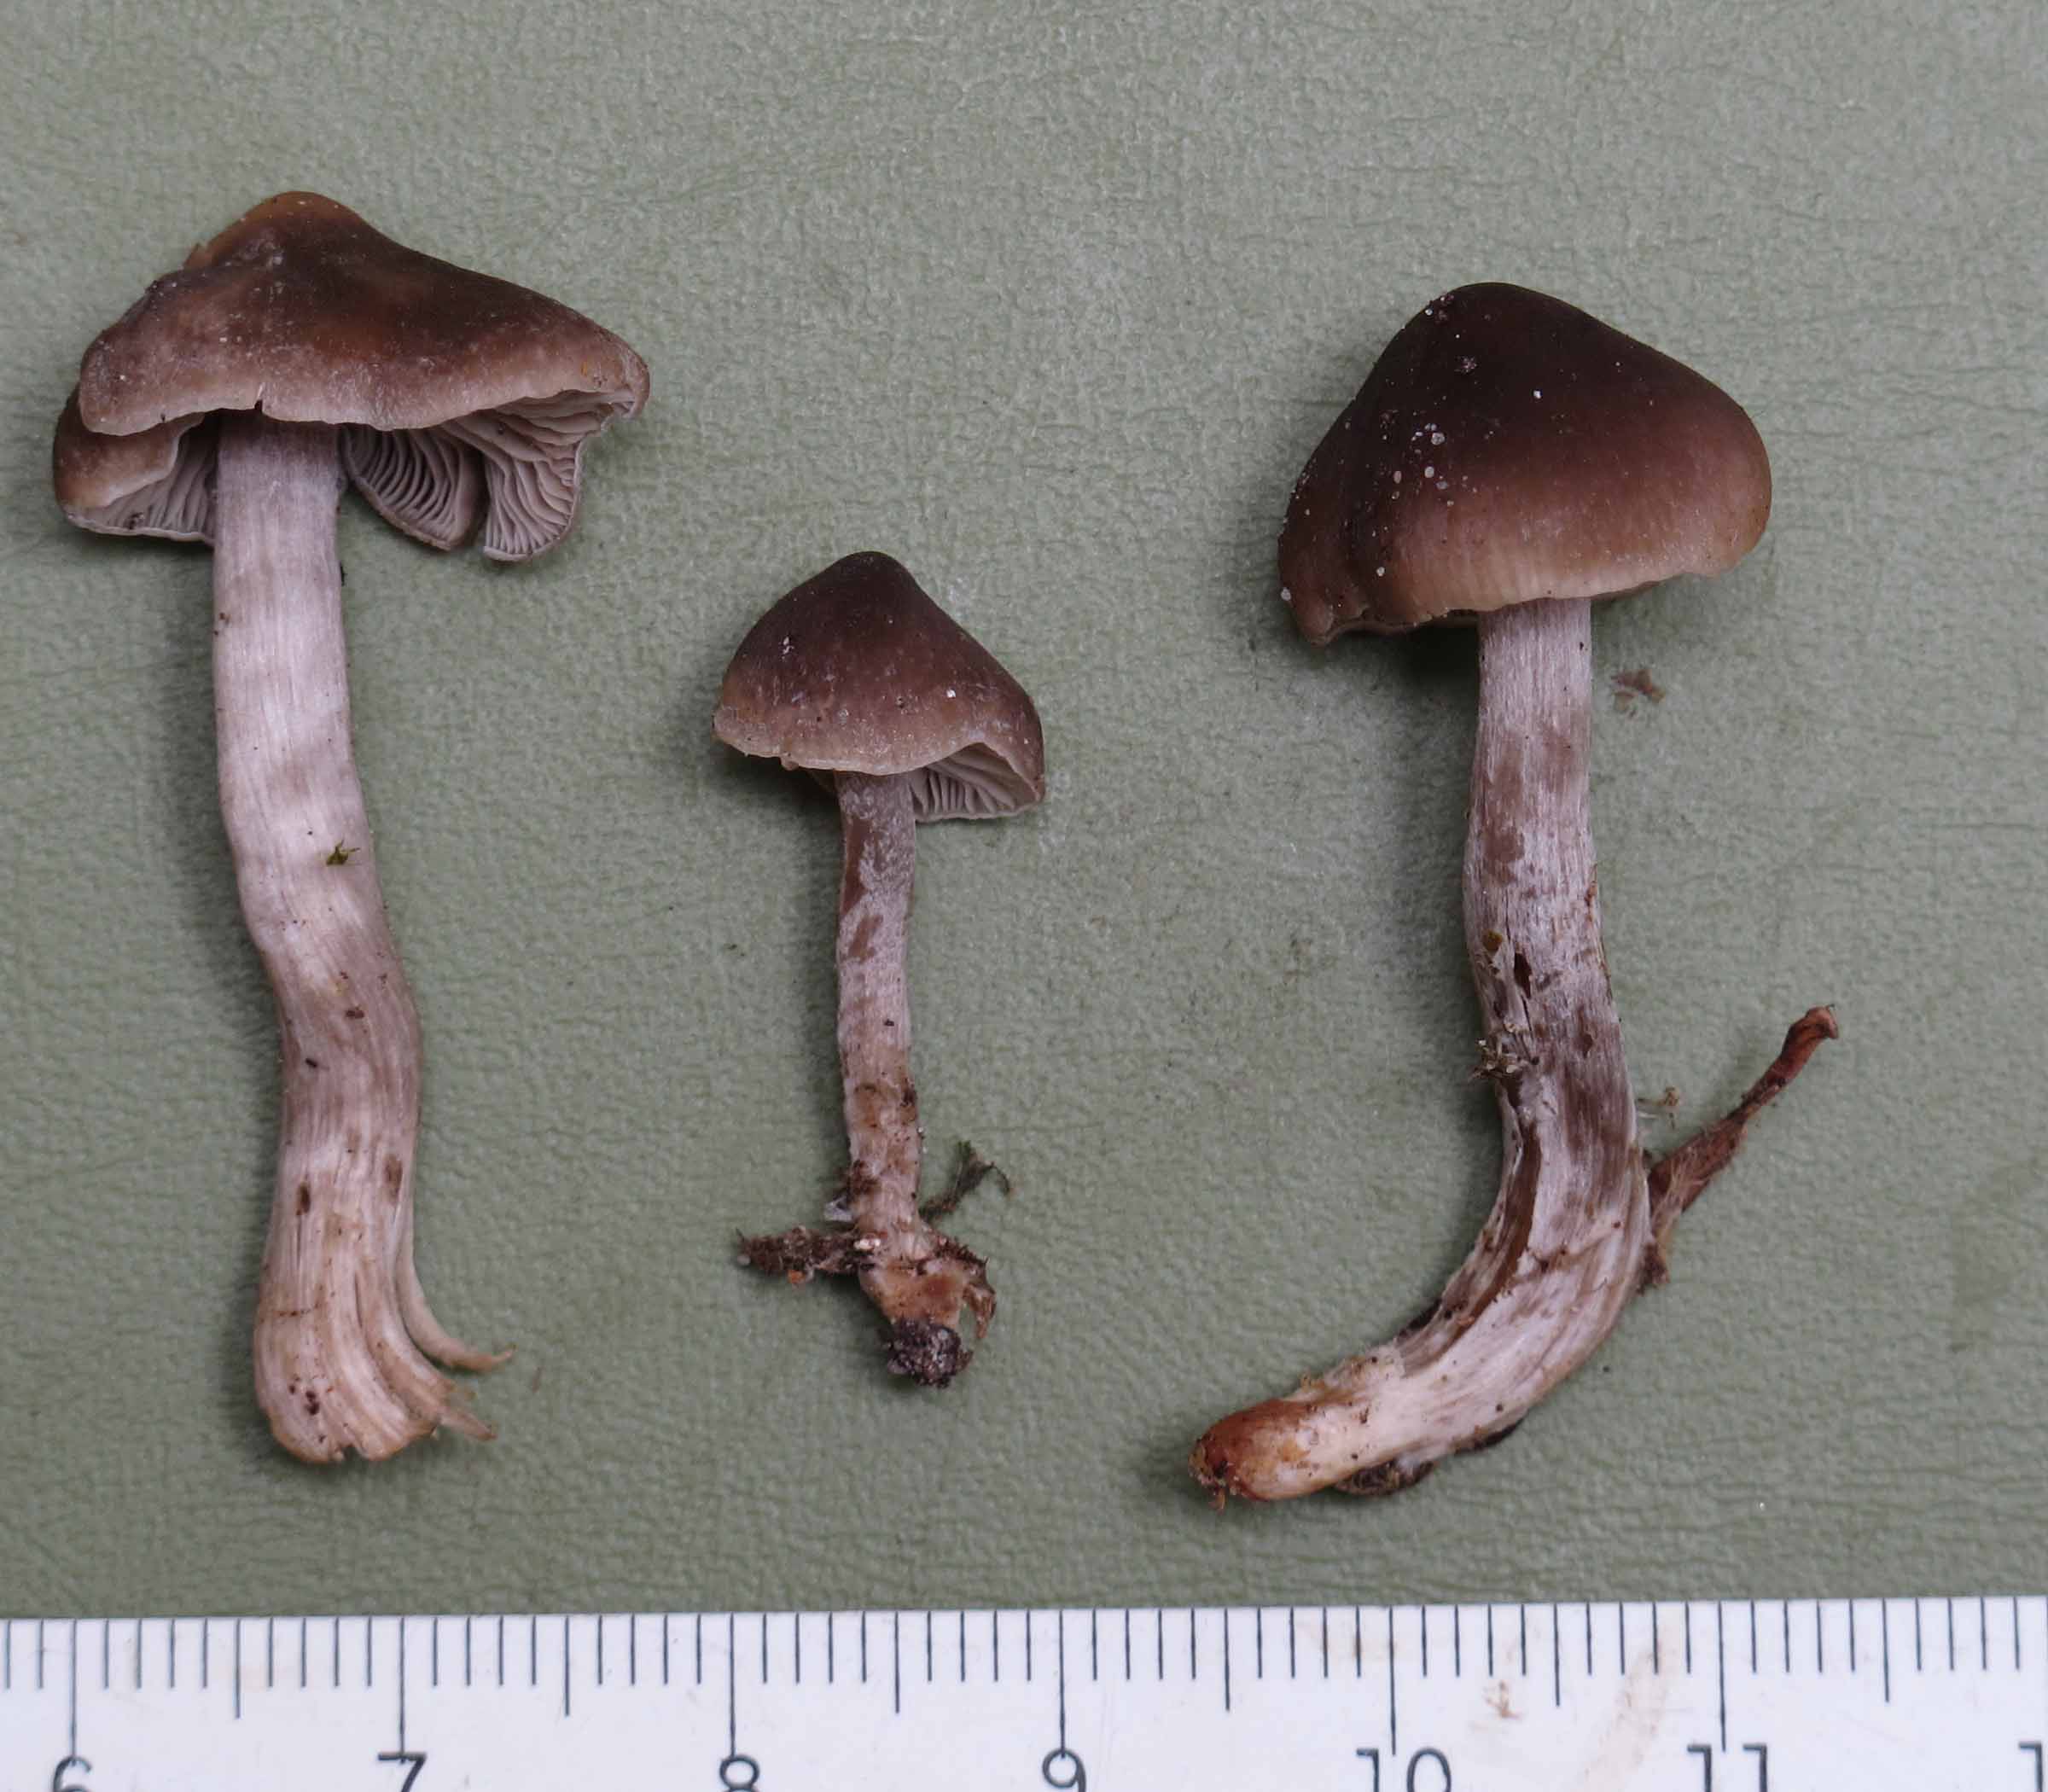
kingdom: Fungi
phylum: Basidiomycota
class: Agaricomycetes
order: Agaricales
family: Lyophyllaceae
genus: Myochromella
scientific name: Myochromella boudieri
